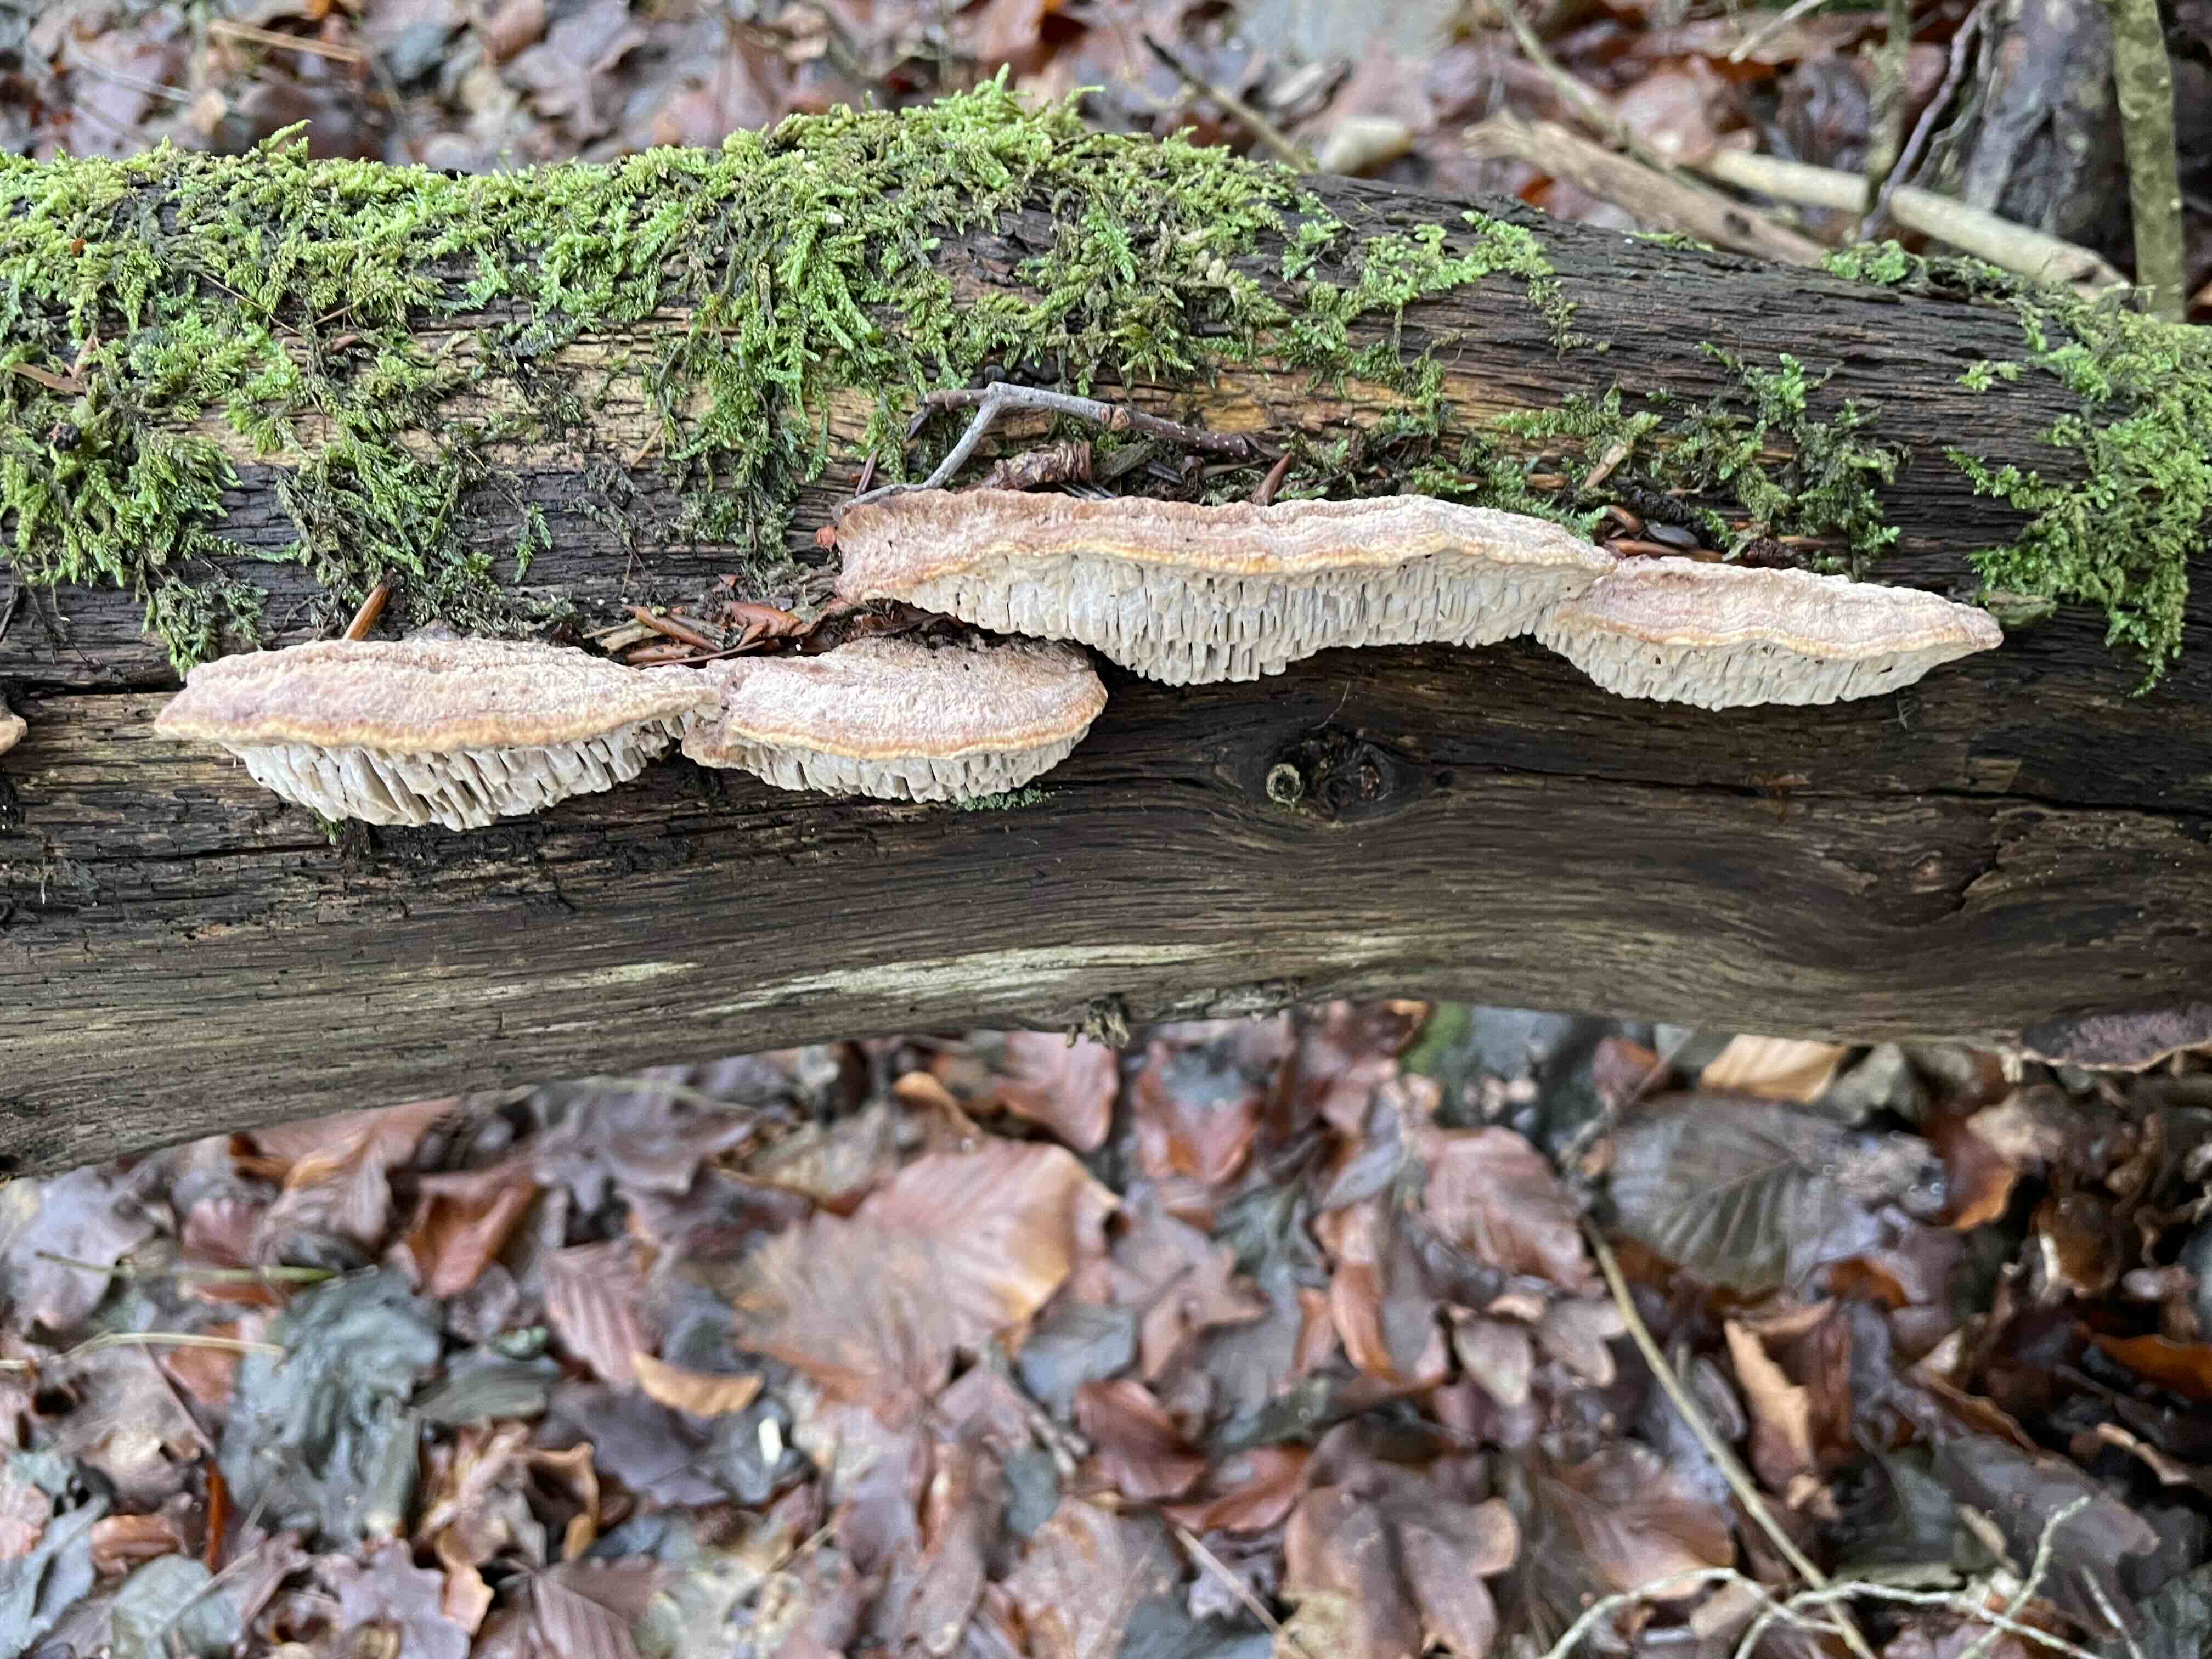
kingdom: Fungi
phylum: Basidiomycota
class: Agaricomycetes
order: Polyporales
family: Fomitopsidaceae
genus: Daedalea
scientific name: Daedalea quercina
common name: ege-labyrintsvamp
